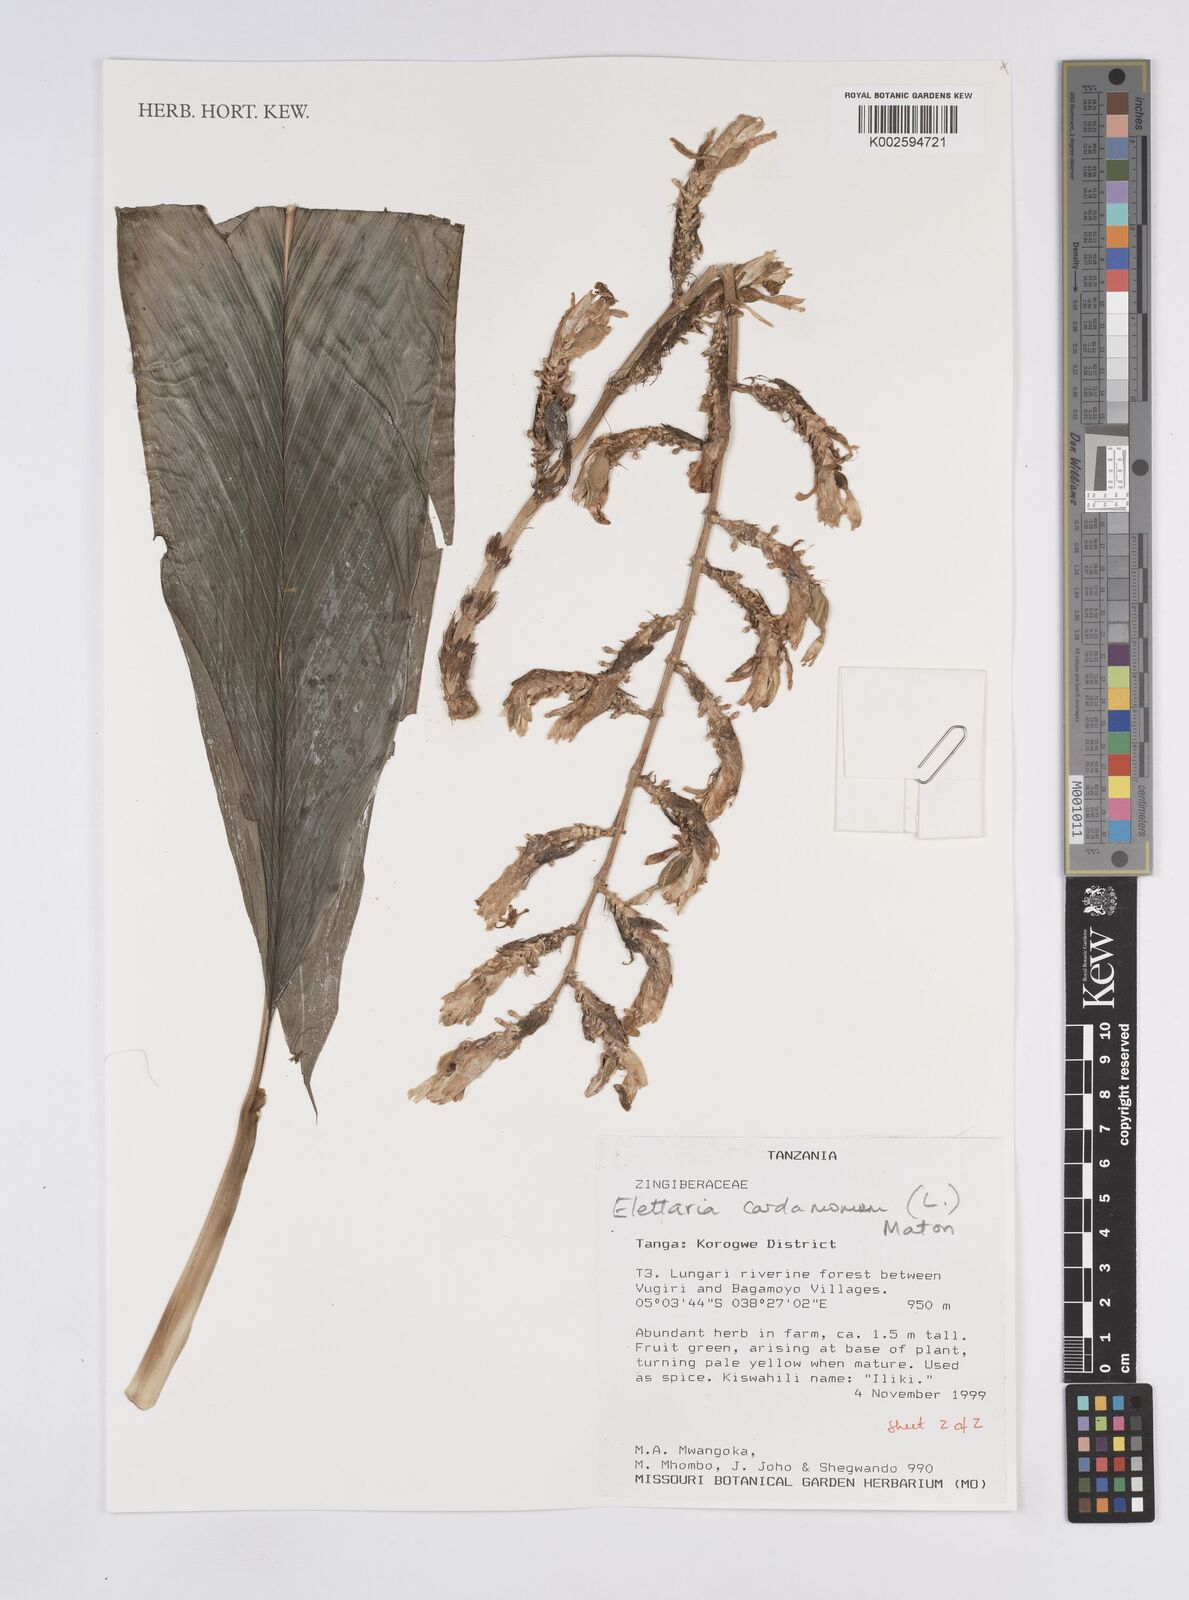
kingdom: Plantae
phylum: Tracheophyta
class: Liliopsida
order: Zingiberales
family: Zingiberaceae
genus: Elettaria
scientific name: Elettaria cardamomum
